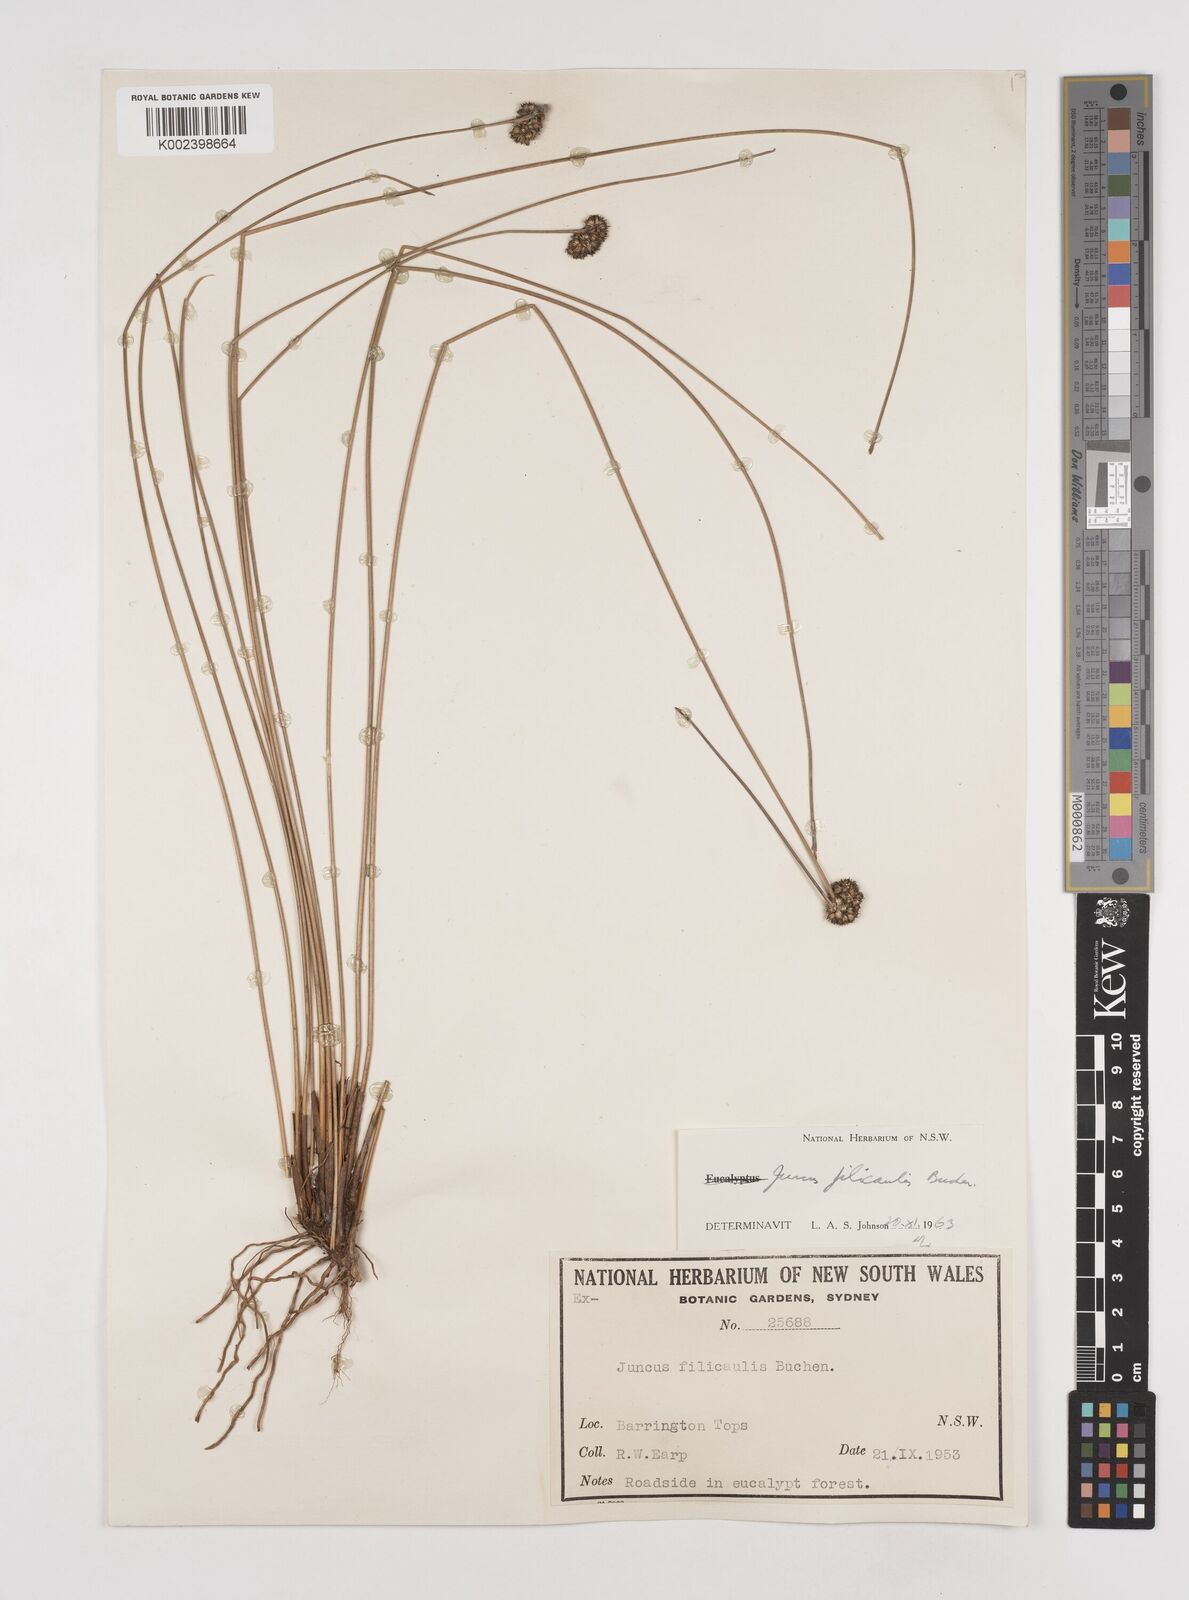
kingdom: Plantae
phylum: Tracheophyta
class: Liliopsida
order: Poales
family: Juncaceae
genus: Juncus
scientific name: Juncus filicaulis
